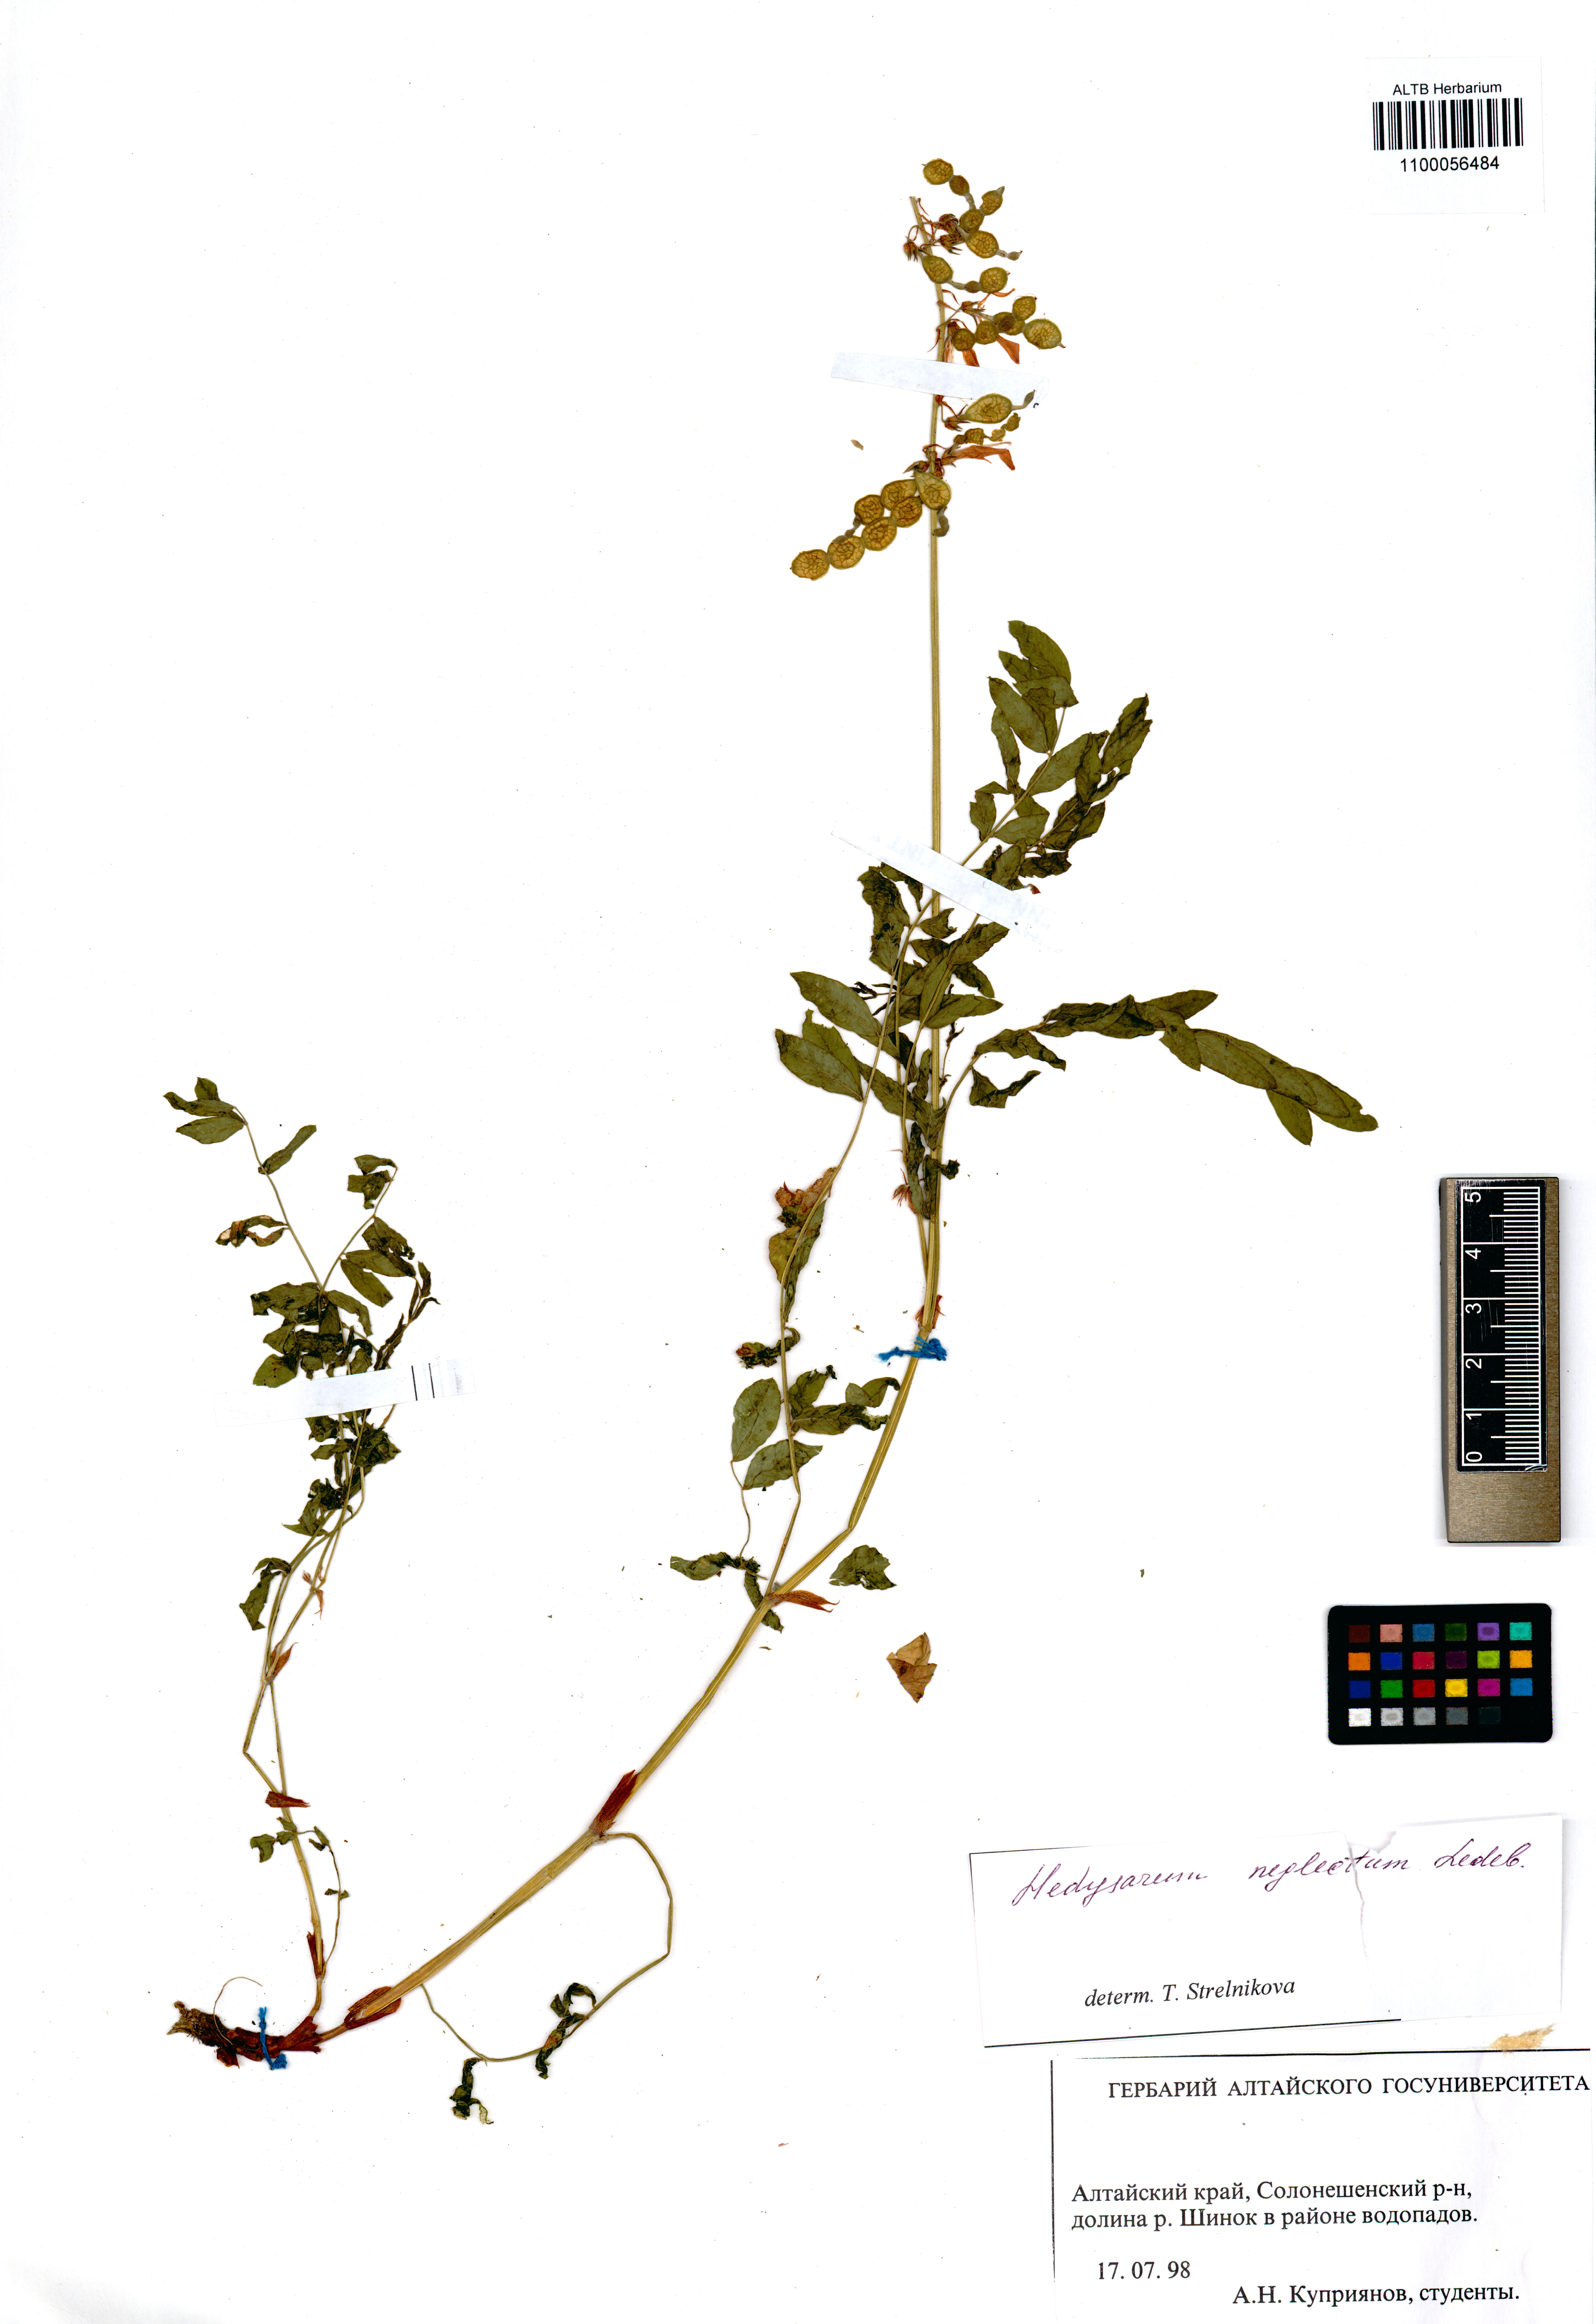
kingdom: Plantae
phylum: Tracheophyta
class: Magnoliopsida
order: Fabales
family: Fabaceae
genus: Hedysarum
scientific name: Hedysarum neglectum
